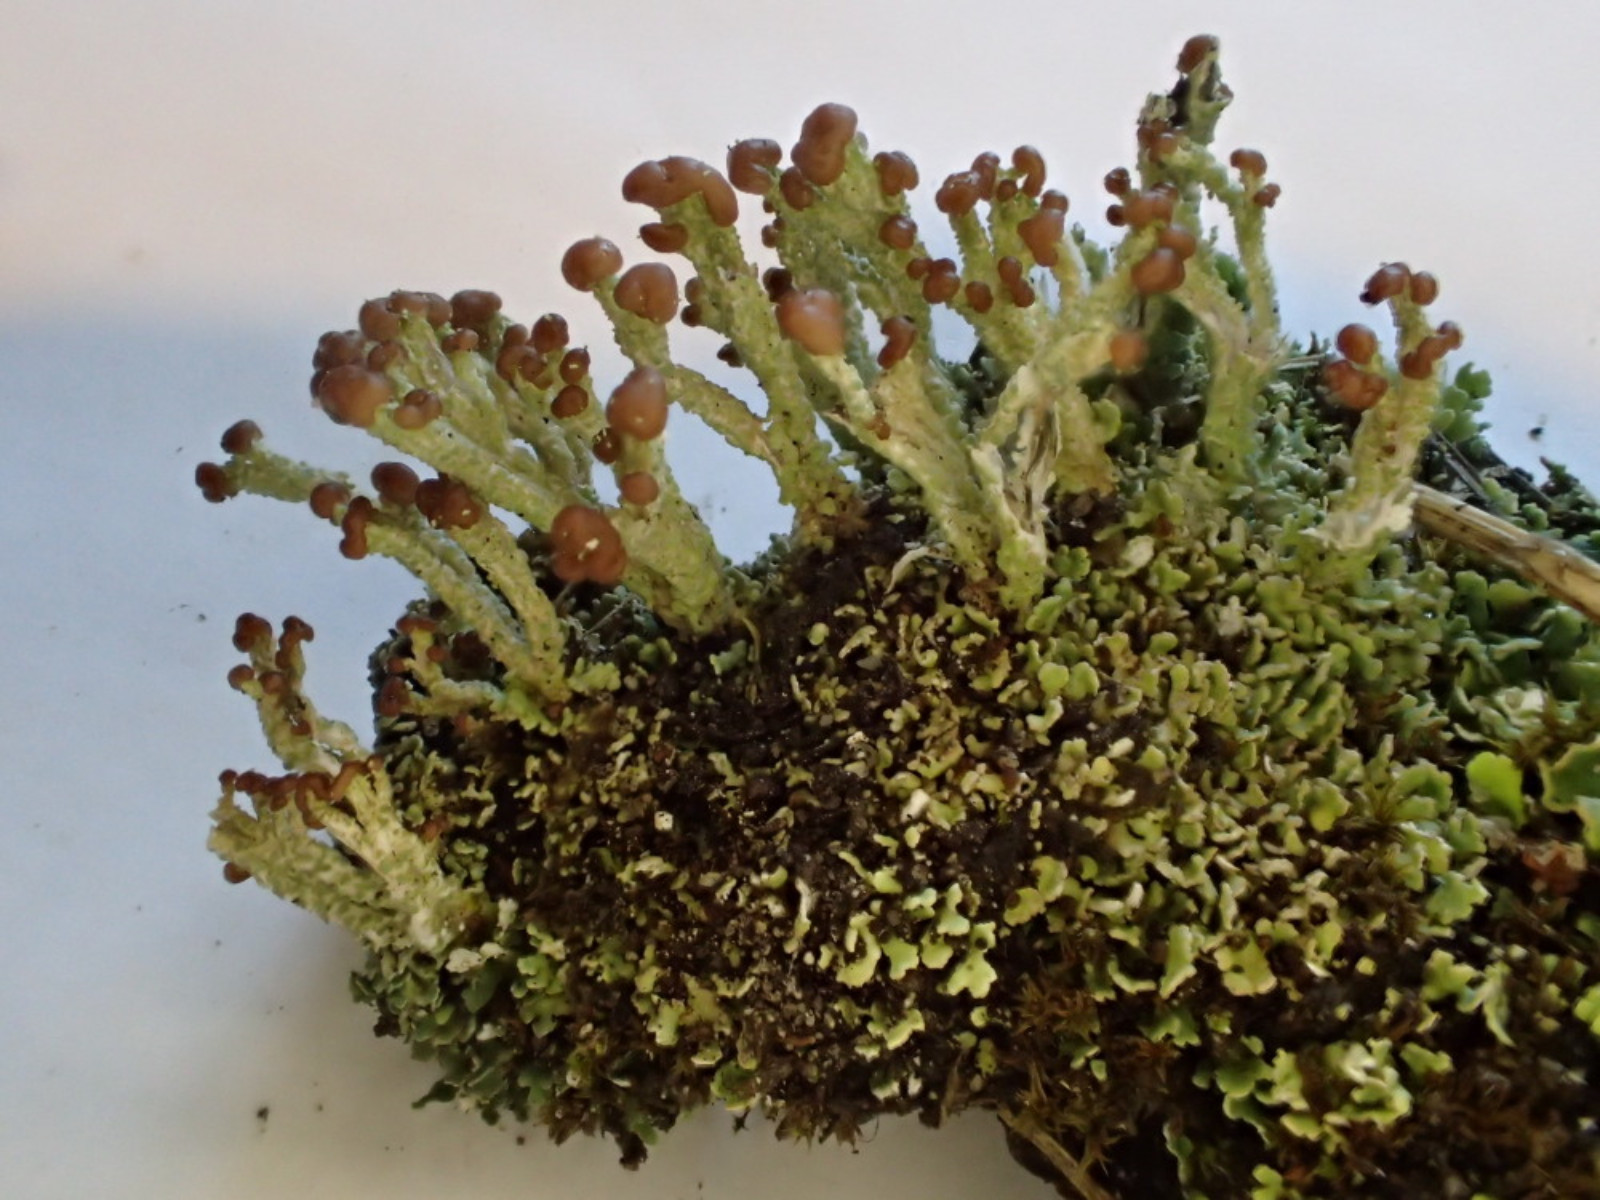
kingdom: Fungi
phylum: Ascomycota
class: Lecanoromycetes
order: Lecanorales
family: Cladoniaceae
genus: Cladonia
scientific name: Cladonia cariosa
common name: furet bægerlav
